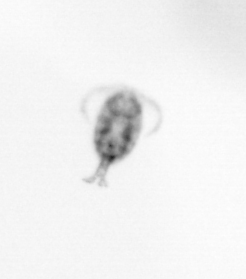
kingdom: Animalia
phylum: Arthropoda
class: Copepoda
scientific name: Copepoda
